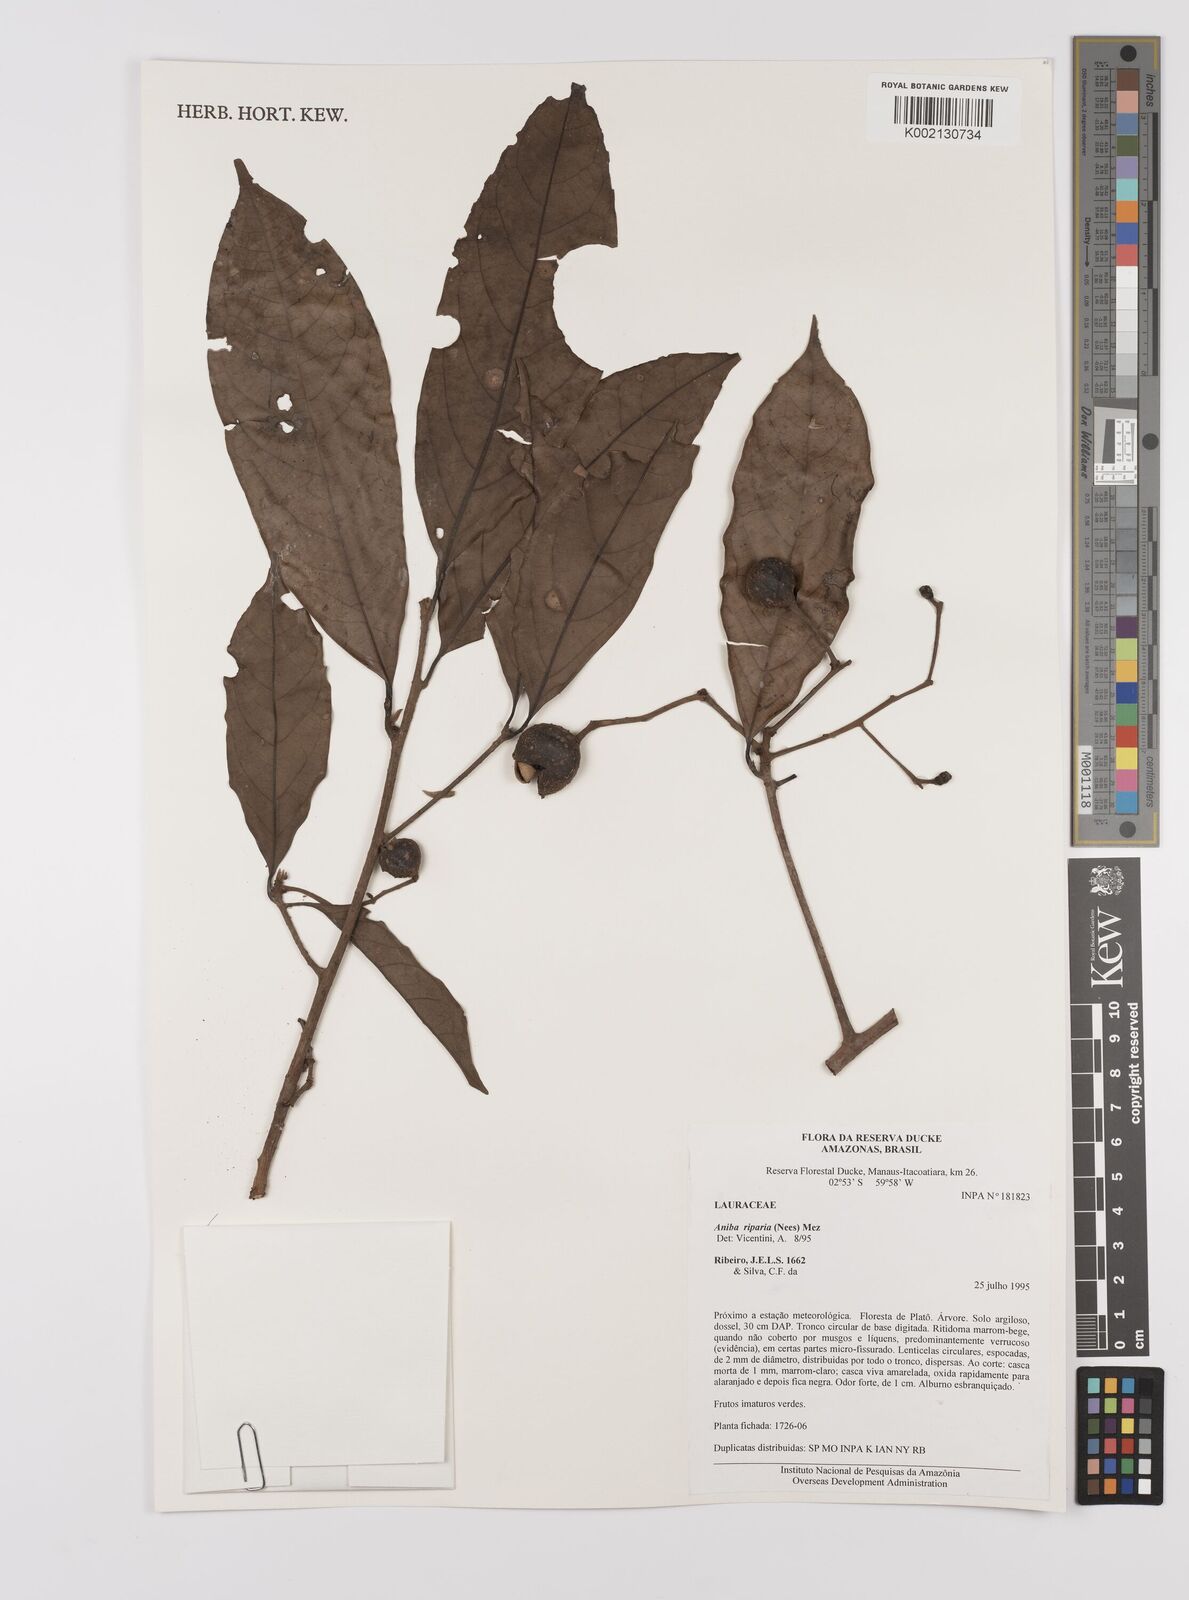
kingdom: Plantae
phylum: Tracheophyta
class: Magnoliopsida
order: Laurales
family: Lauraceae
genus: Aniba
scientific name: Aniba riparia
